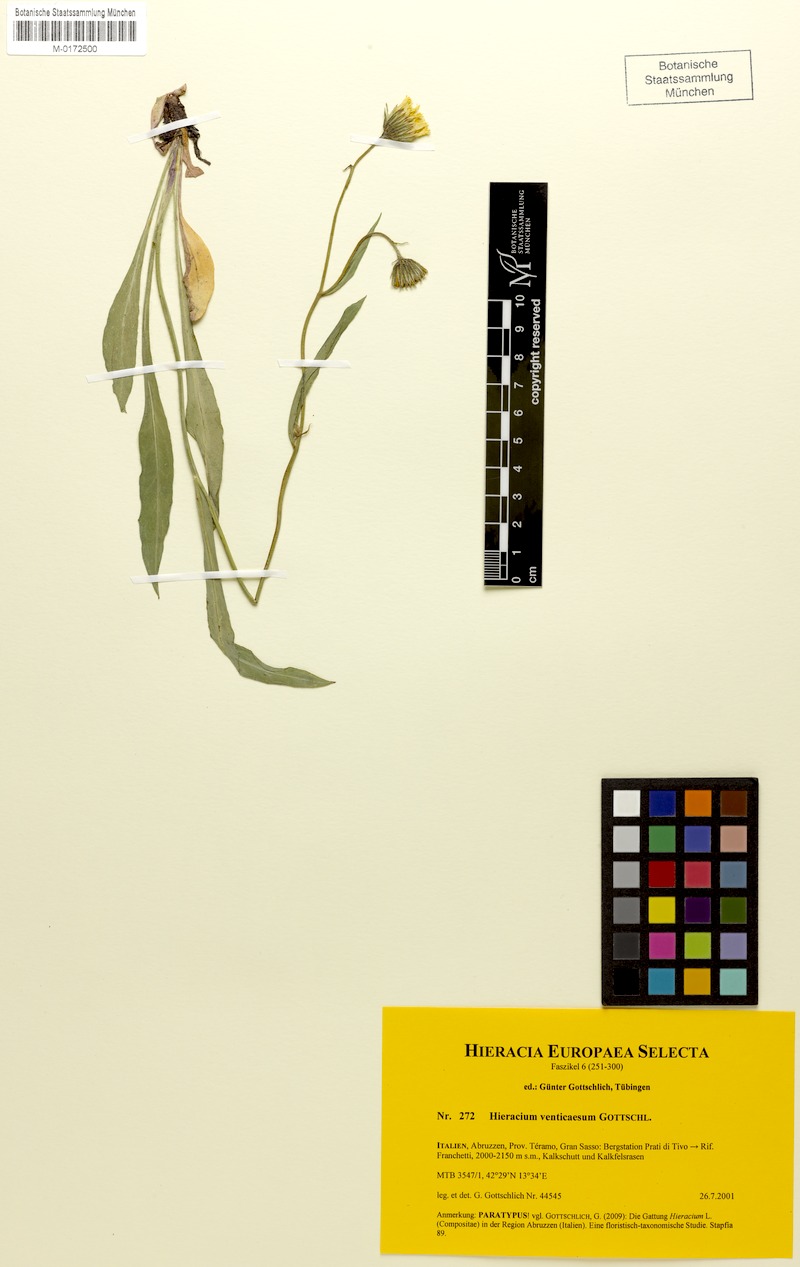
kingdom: Plantae
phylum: Tracheophyta
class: Magnoliopsida
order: Asterales
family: Asteraceae
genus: Hieracium
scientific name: Hieracium venticaesum
